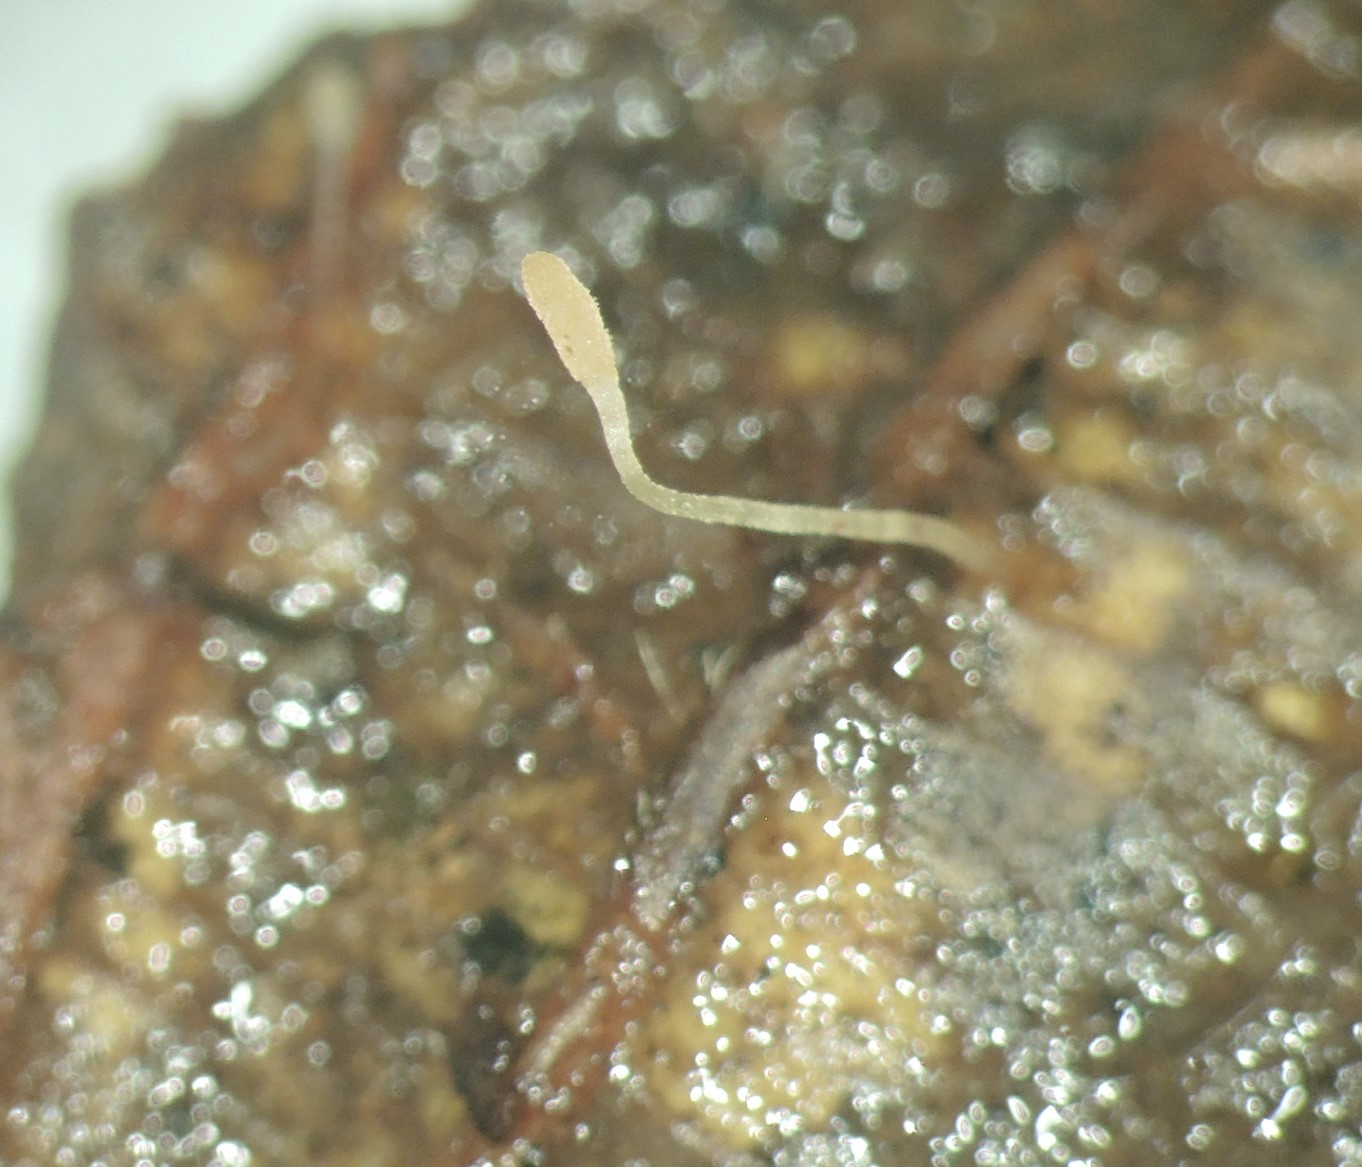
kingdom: Fungi
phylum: Basidiomycota
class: Agaricomycetes
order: Agaricales
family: Typhulaceae
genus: Typhula
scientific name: Typhula
